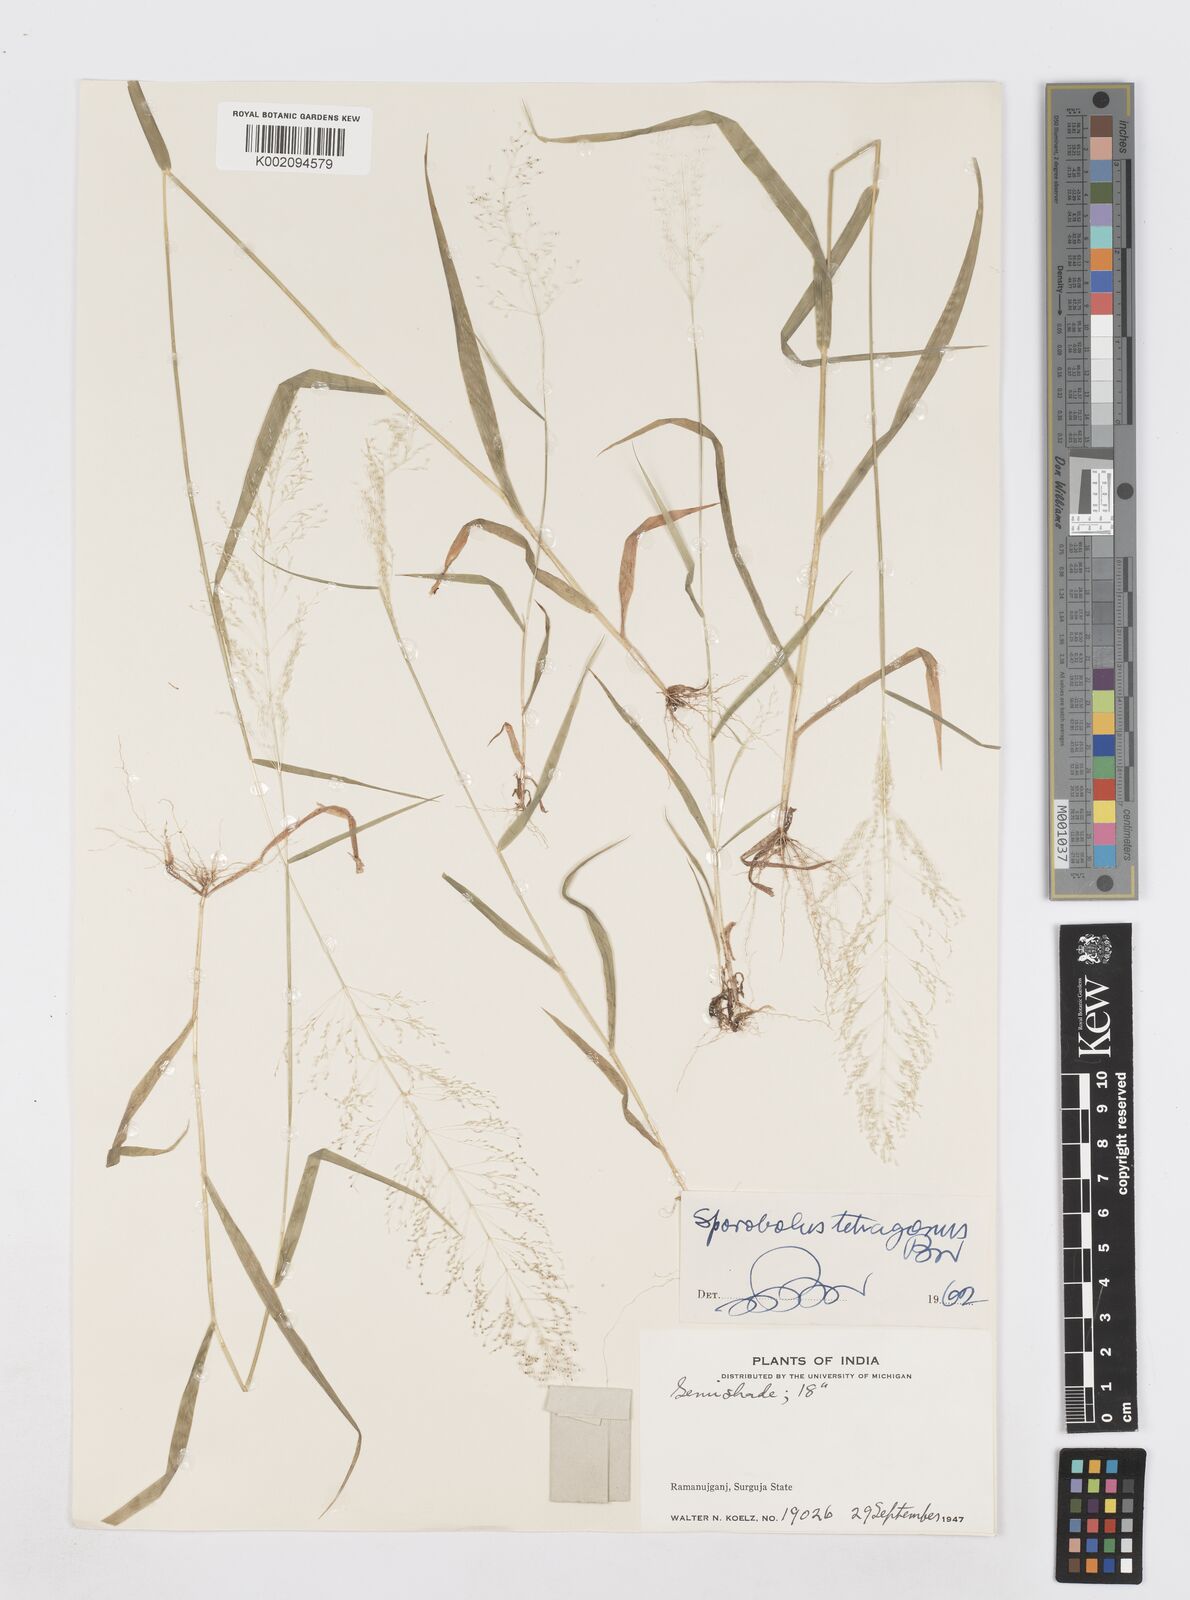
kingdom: Plantae
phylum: Tracheophyta
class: Liliopsida
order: Poales
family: Poaceae
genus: Sporobolus
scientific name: Sporobolus tetragonus
